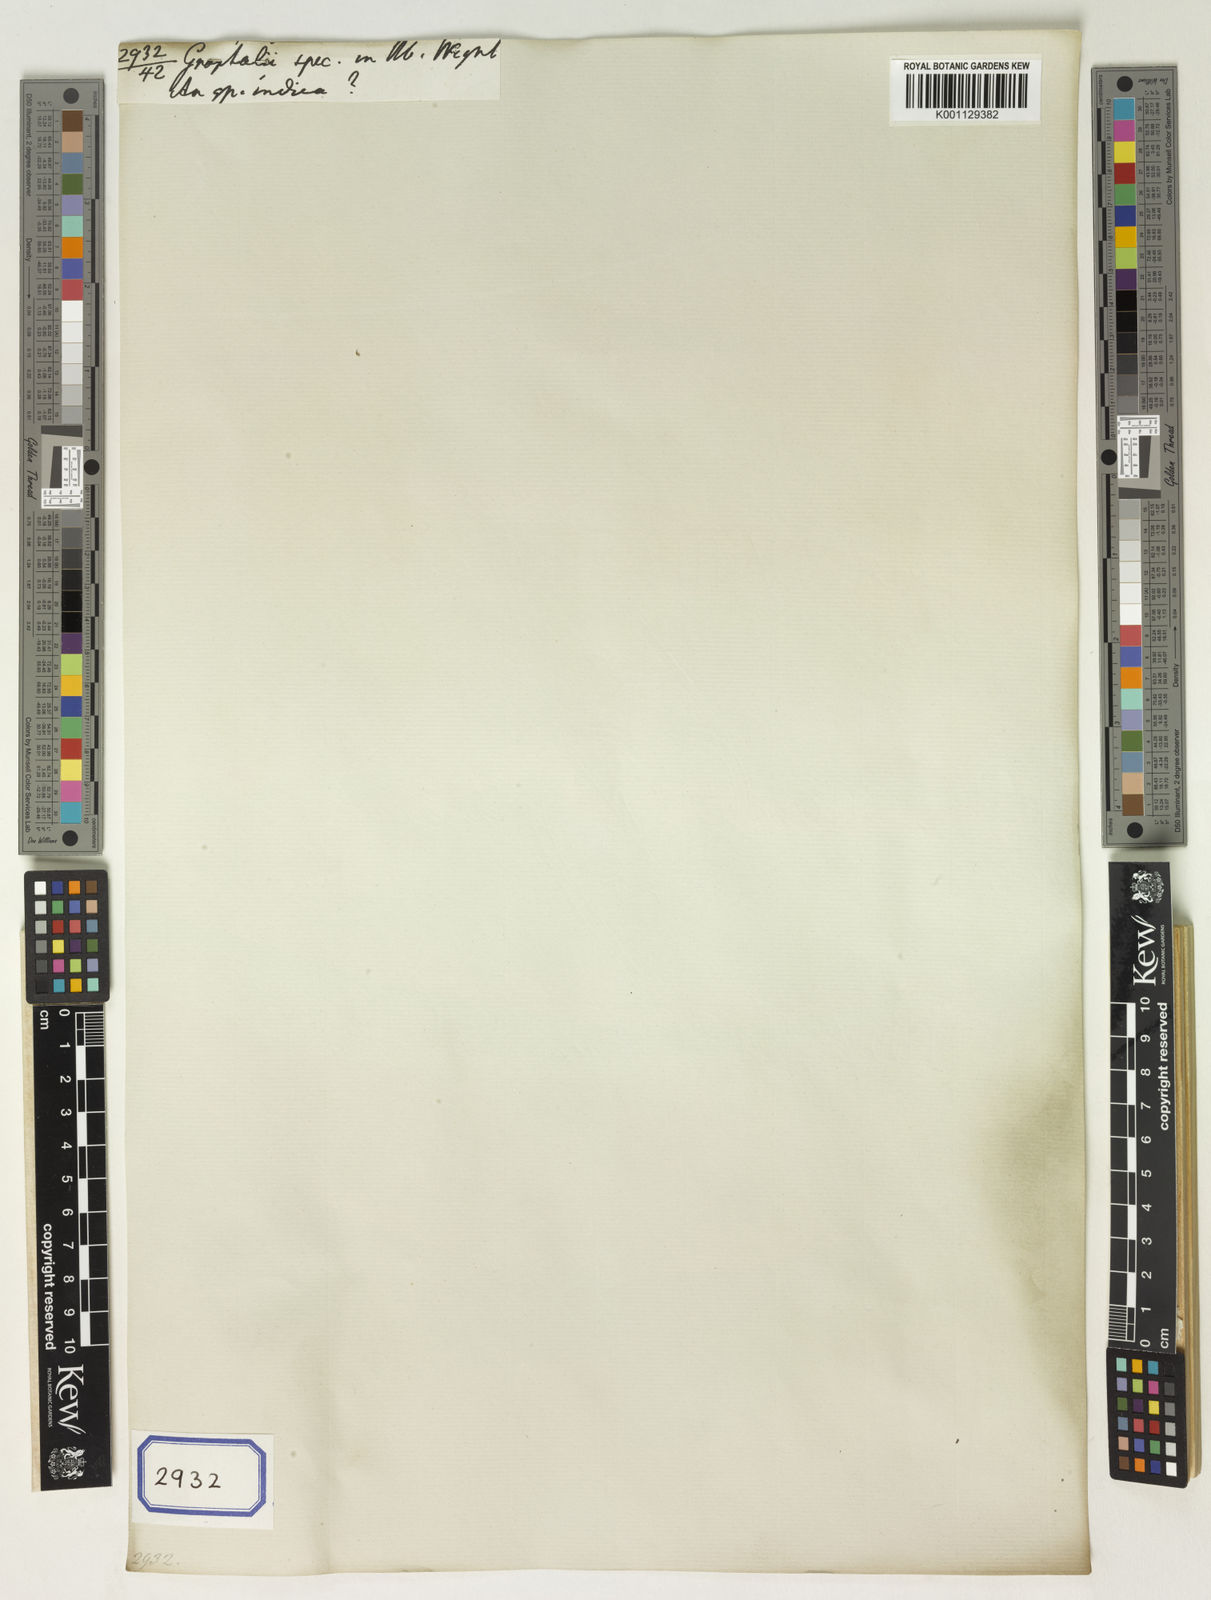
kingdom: Plantae
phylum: Tracheophyta
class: Magnoliopsida
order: Asterales
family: Asteraceae
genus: Gnaphalium
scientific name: Gnaphalium
